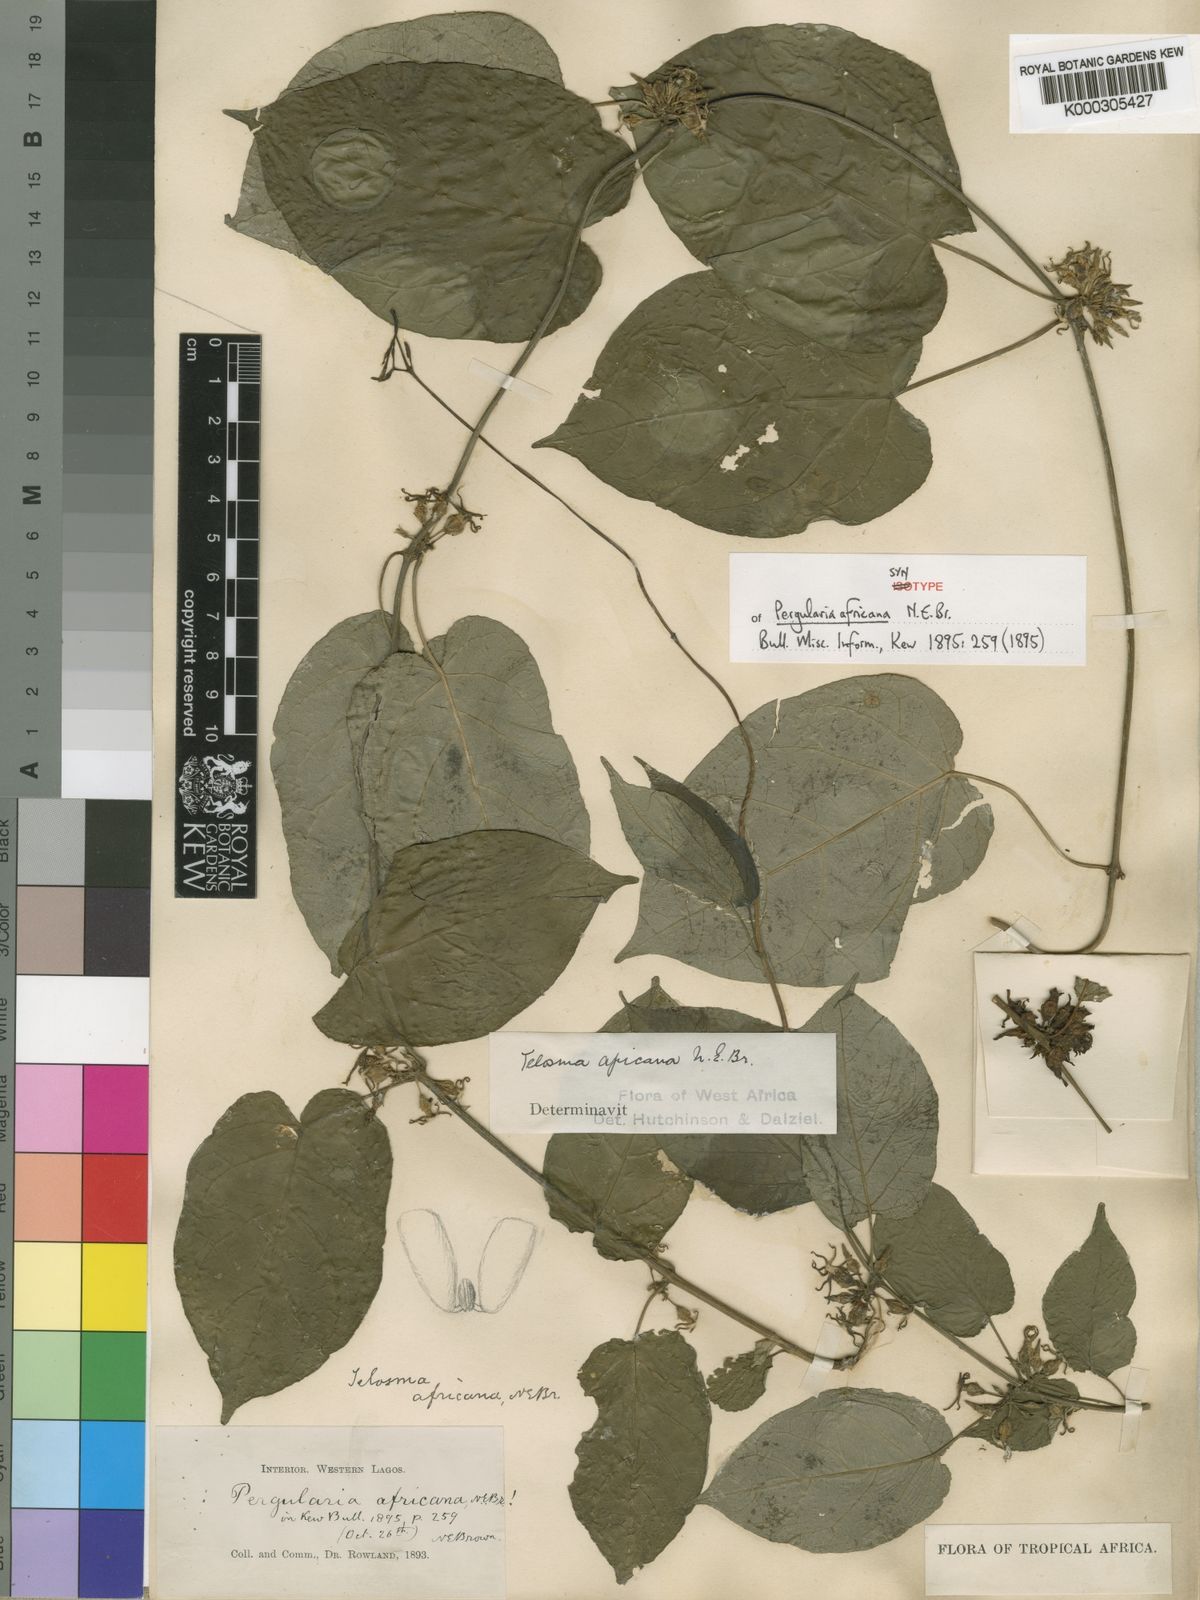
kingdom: Plantae
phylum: Tracheophyta
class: Magnoliopsida
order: Gentianales
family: Apocynaceae
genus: Telosma
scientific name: Telosma africana
